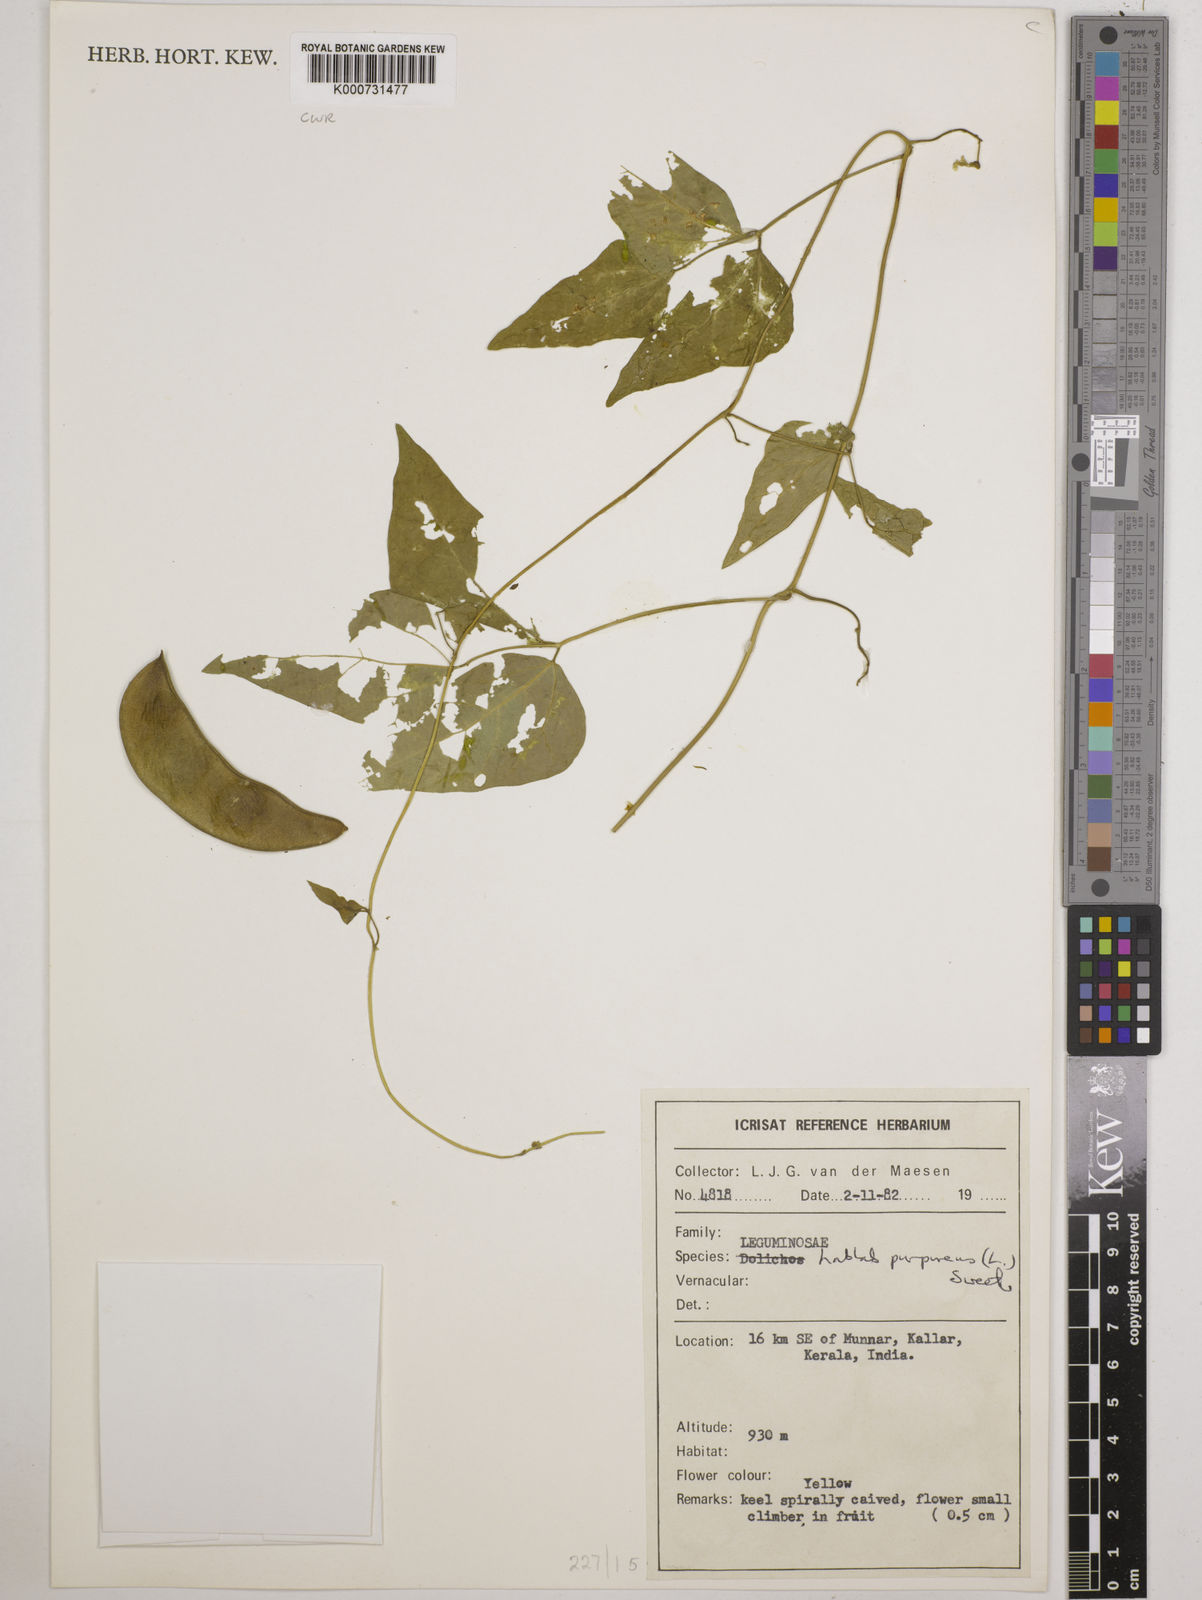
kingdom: Plantae
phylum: Tracheophyta
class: Magnoliopsida
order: Fabales
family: Fabaceae
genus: Lablab
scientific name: Lablab purpureus
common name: Lablab-bean
